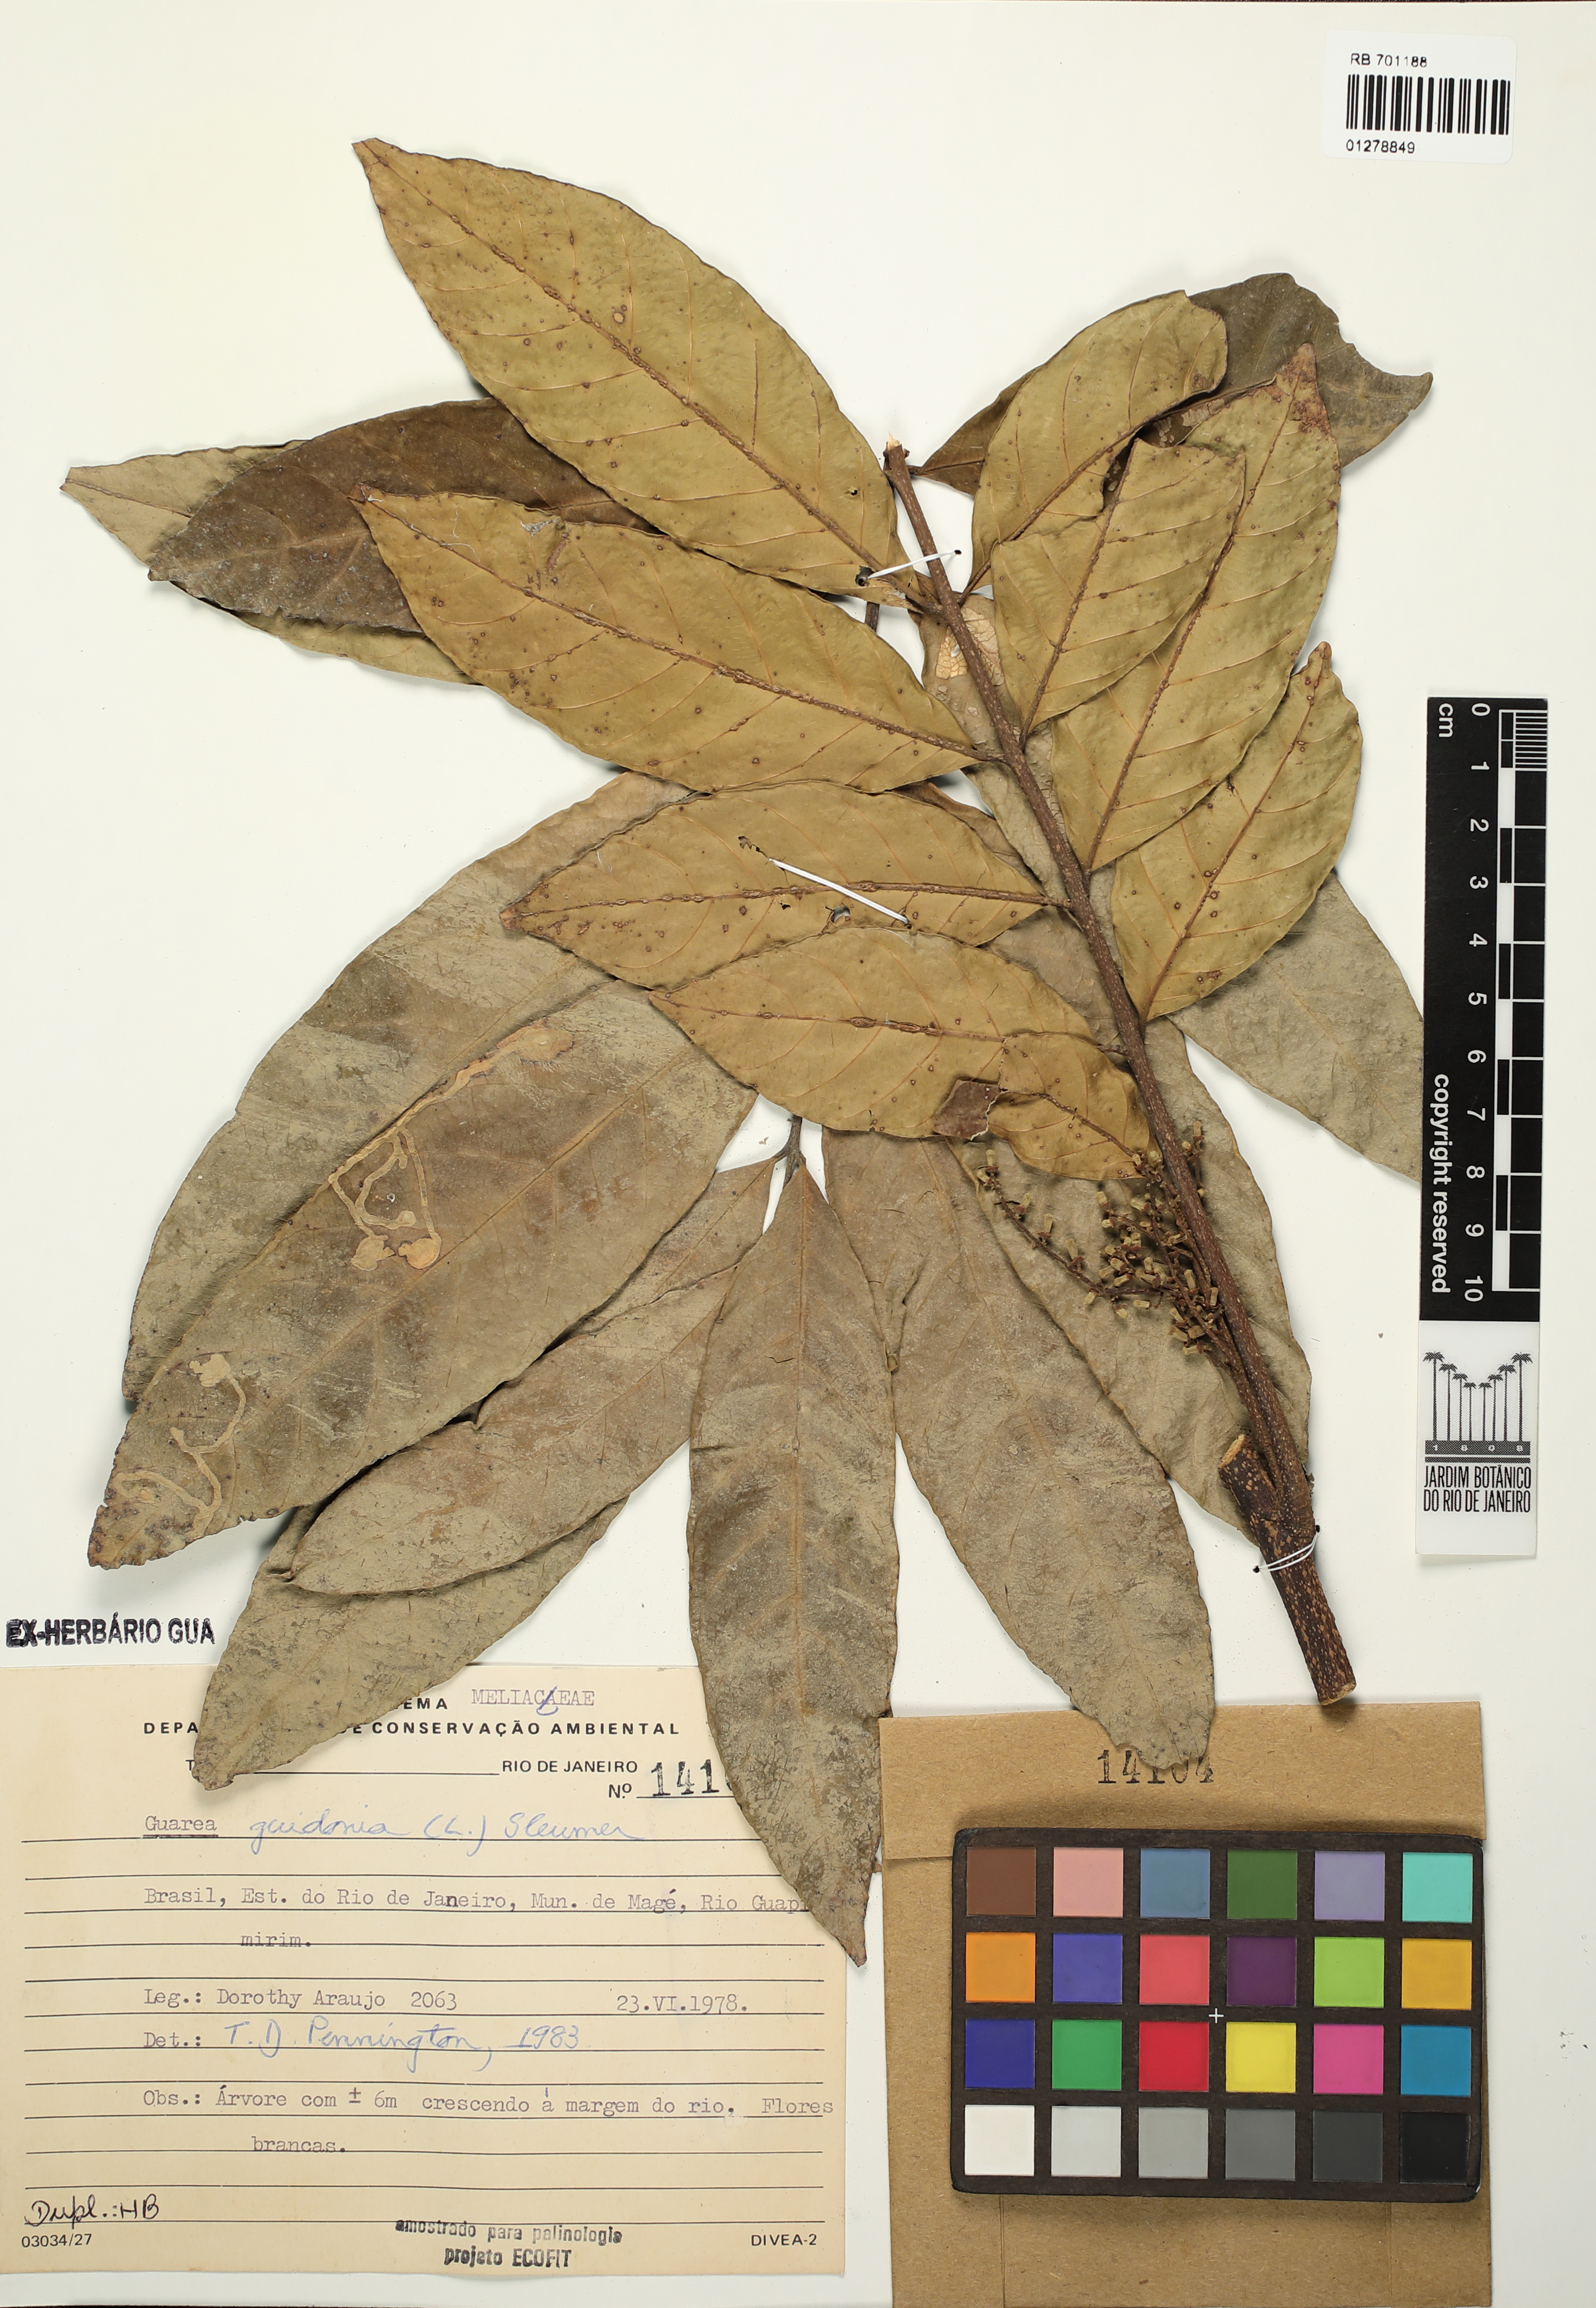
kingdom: Plantae
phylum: Tracheophyta
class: Magnoliopsida
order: Sapindales
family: Meliaceae
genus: Guarea
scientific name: Guarea guidonia
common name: American muskwood
